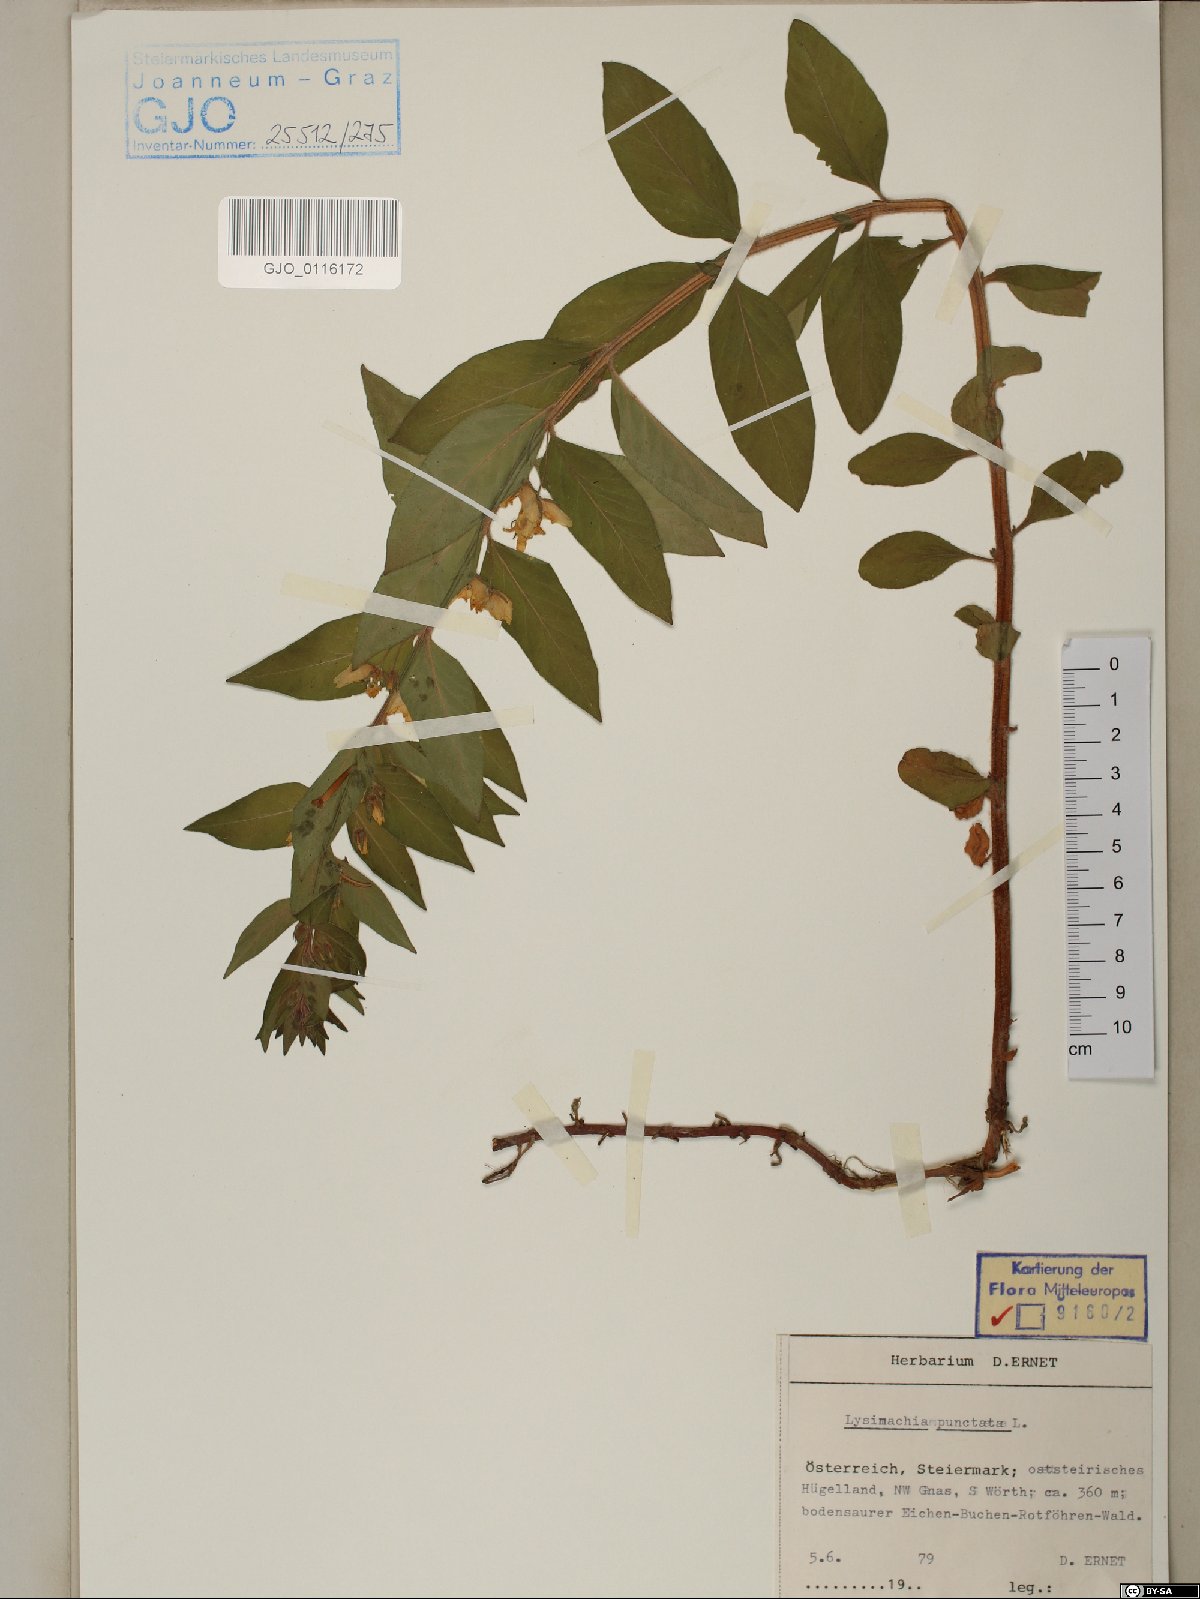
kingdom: Plantae
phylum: Tracheophyta
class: Magnoliopsida
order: Ericales
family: Primulaceae
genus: Lysimachia
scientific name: Lysimachia punctata
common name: Dotted loosestrife
